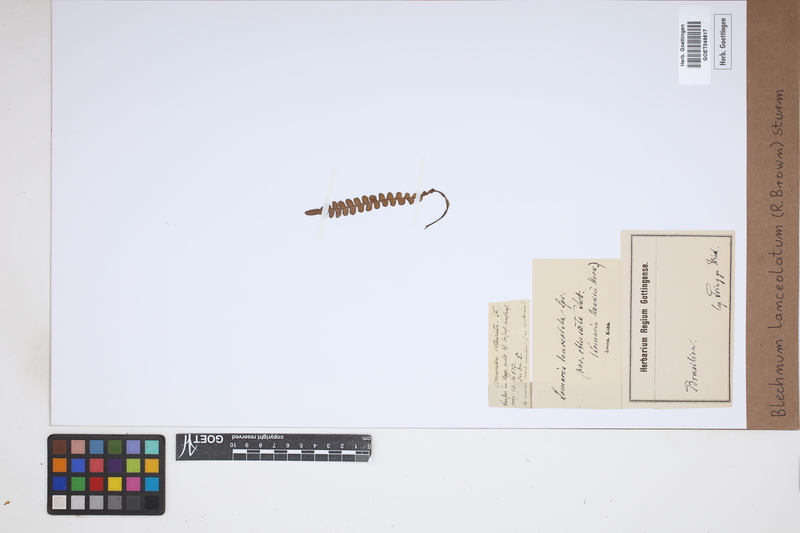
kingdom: Plantae
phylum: Tracheophyta
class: Polypodiopsida
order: Polypodiales
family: Blechnaceae
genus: Austroblechnum
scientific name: Austroblechnum lanceolatum
